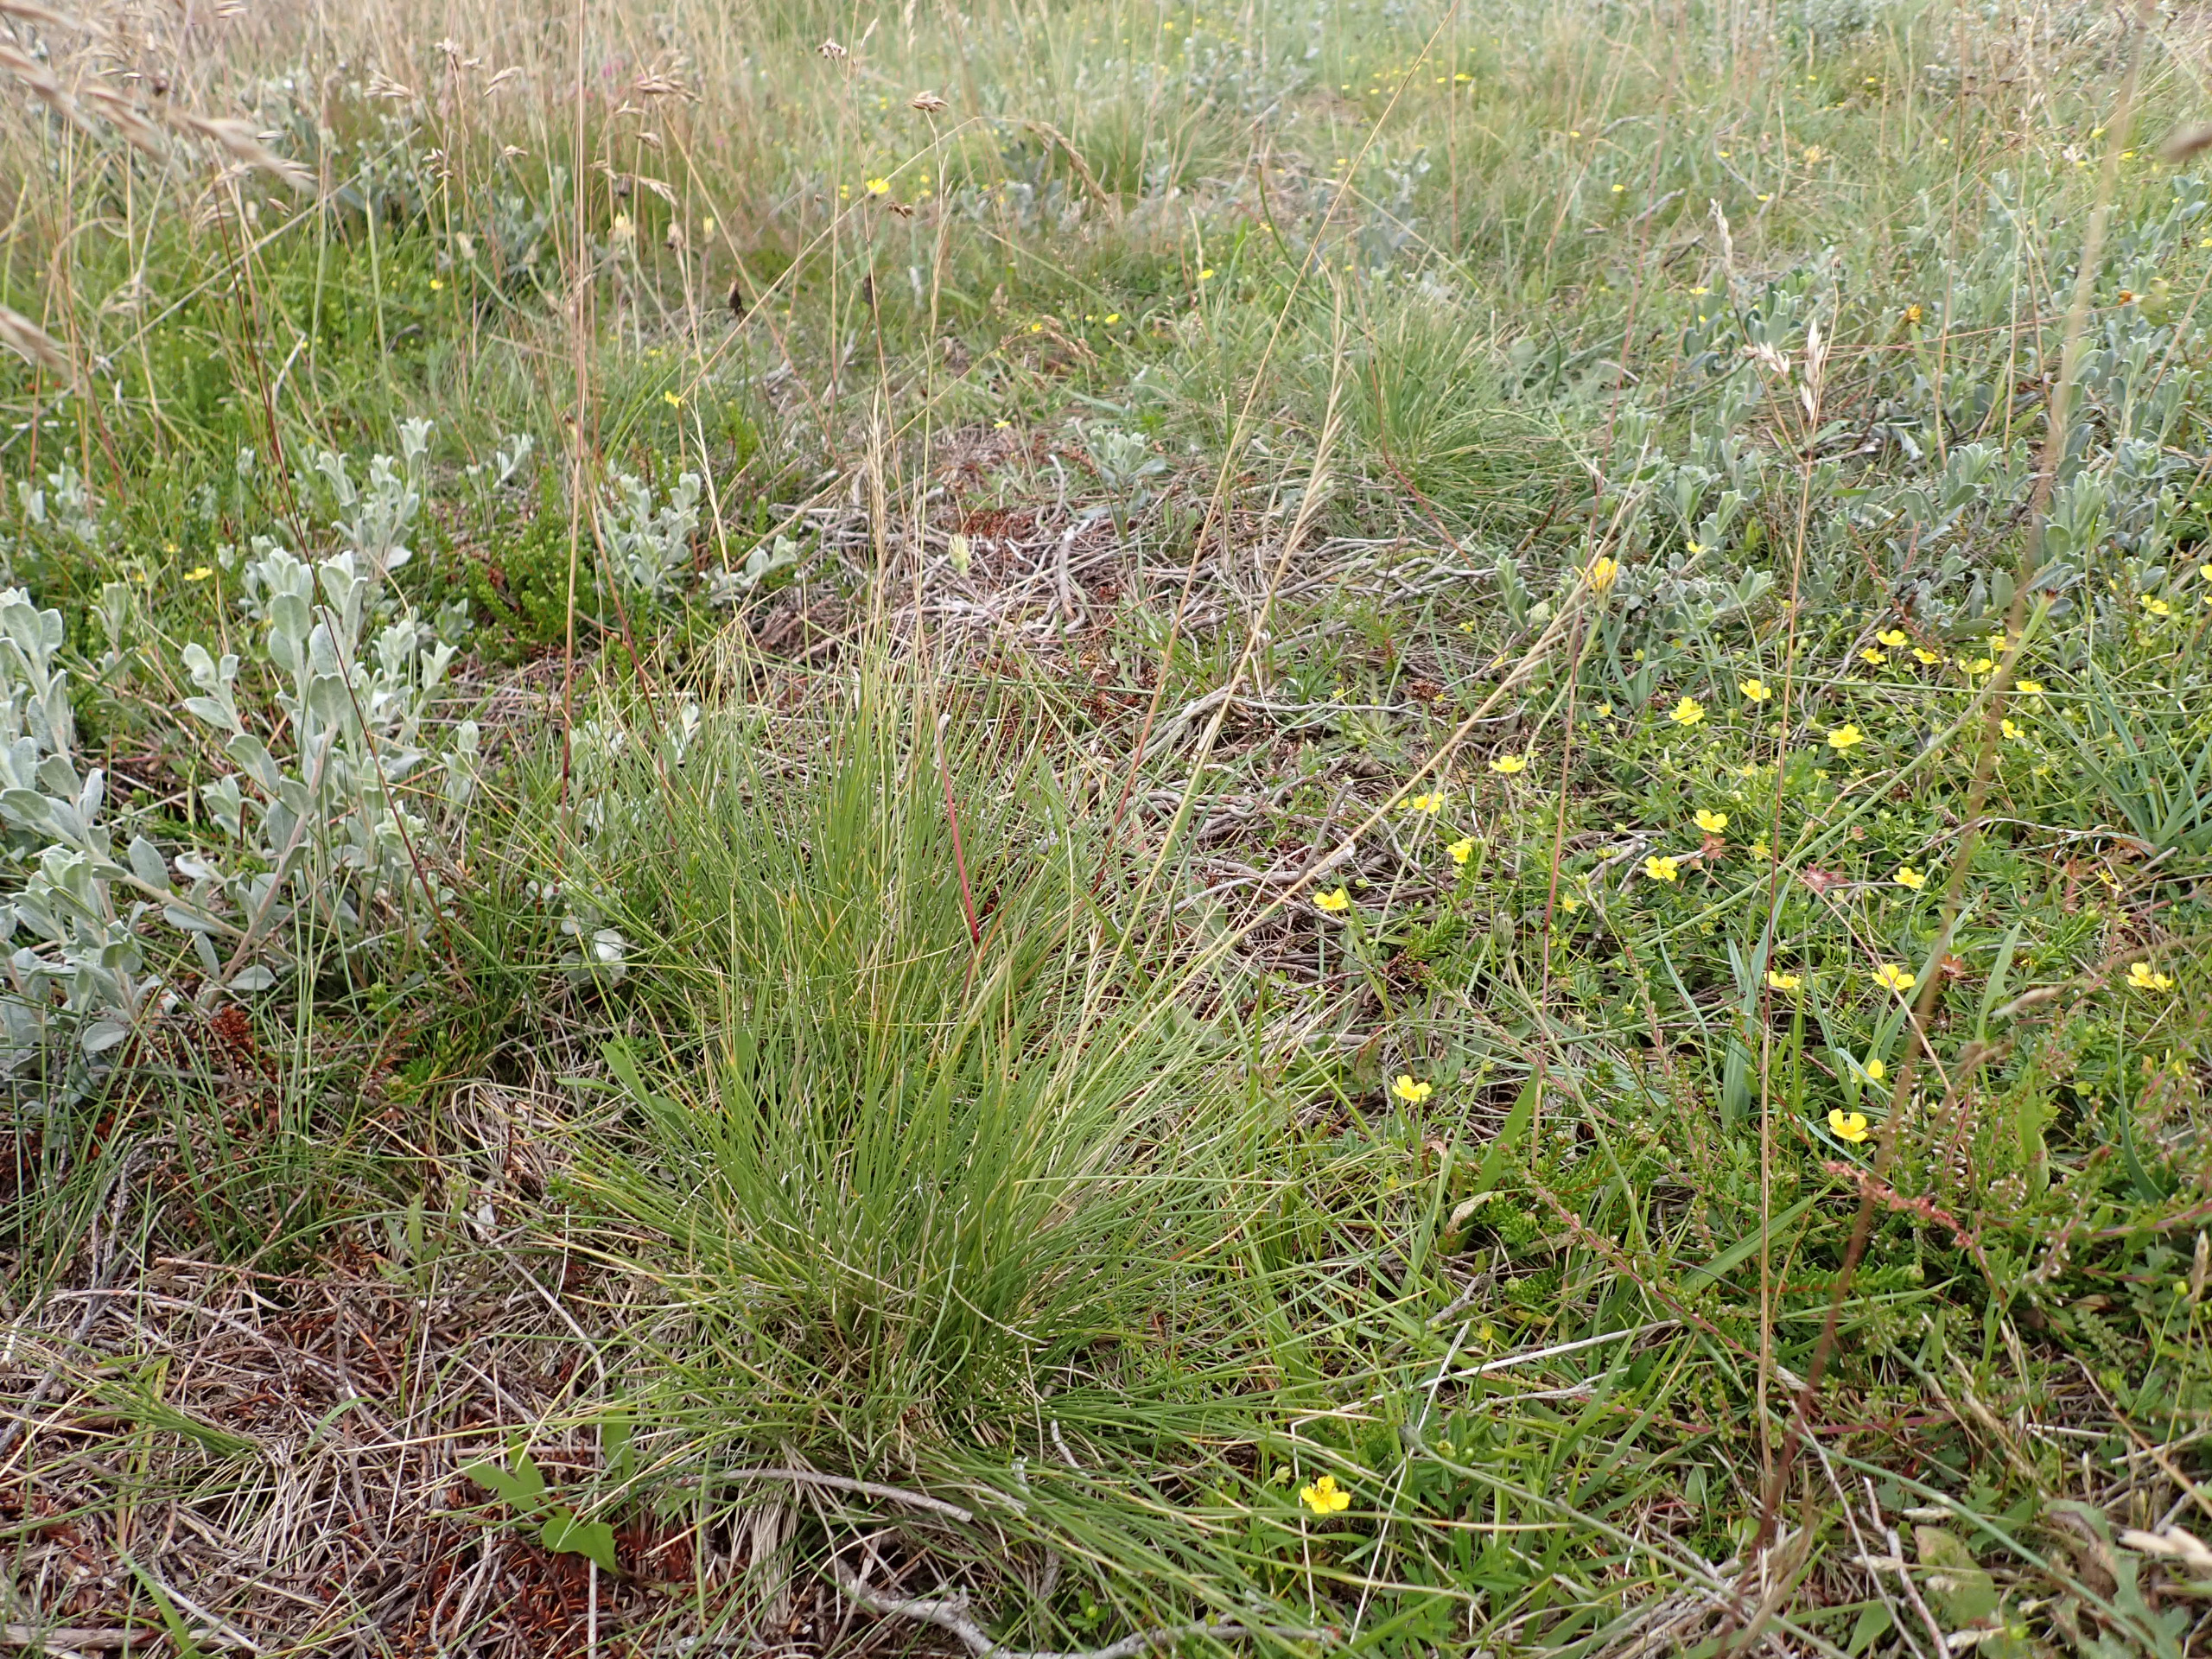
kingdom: Plantae
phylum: Tracheophyta
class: Liliopsida
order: Poales
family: Poaceae
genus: Nardus
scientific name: Nardus stricta
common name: Katteskæg
